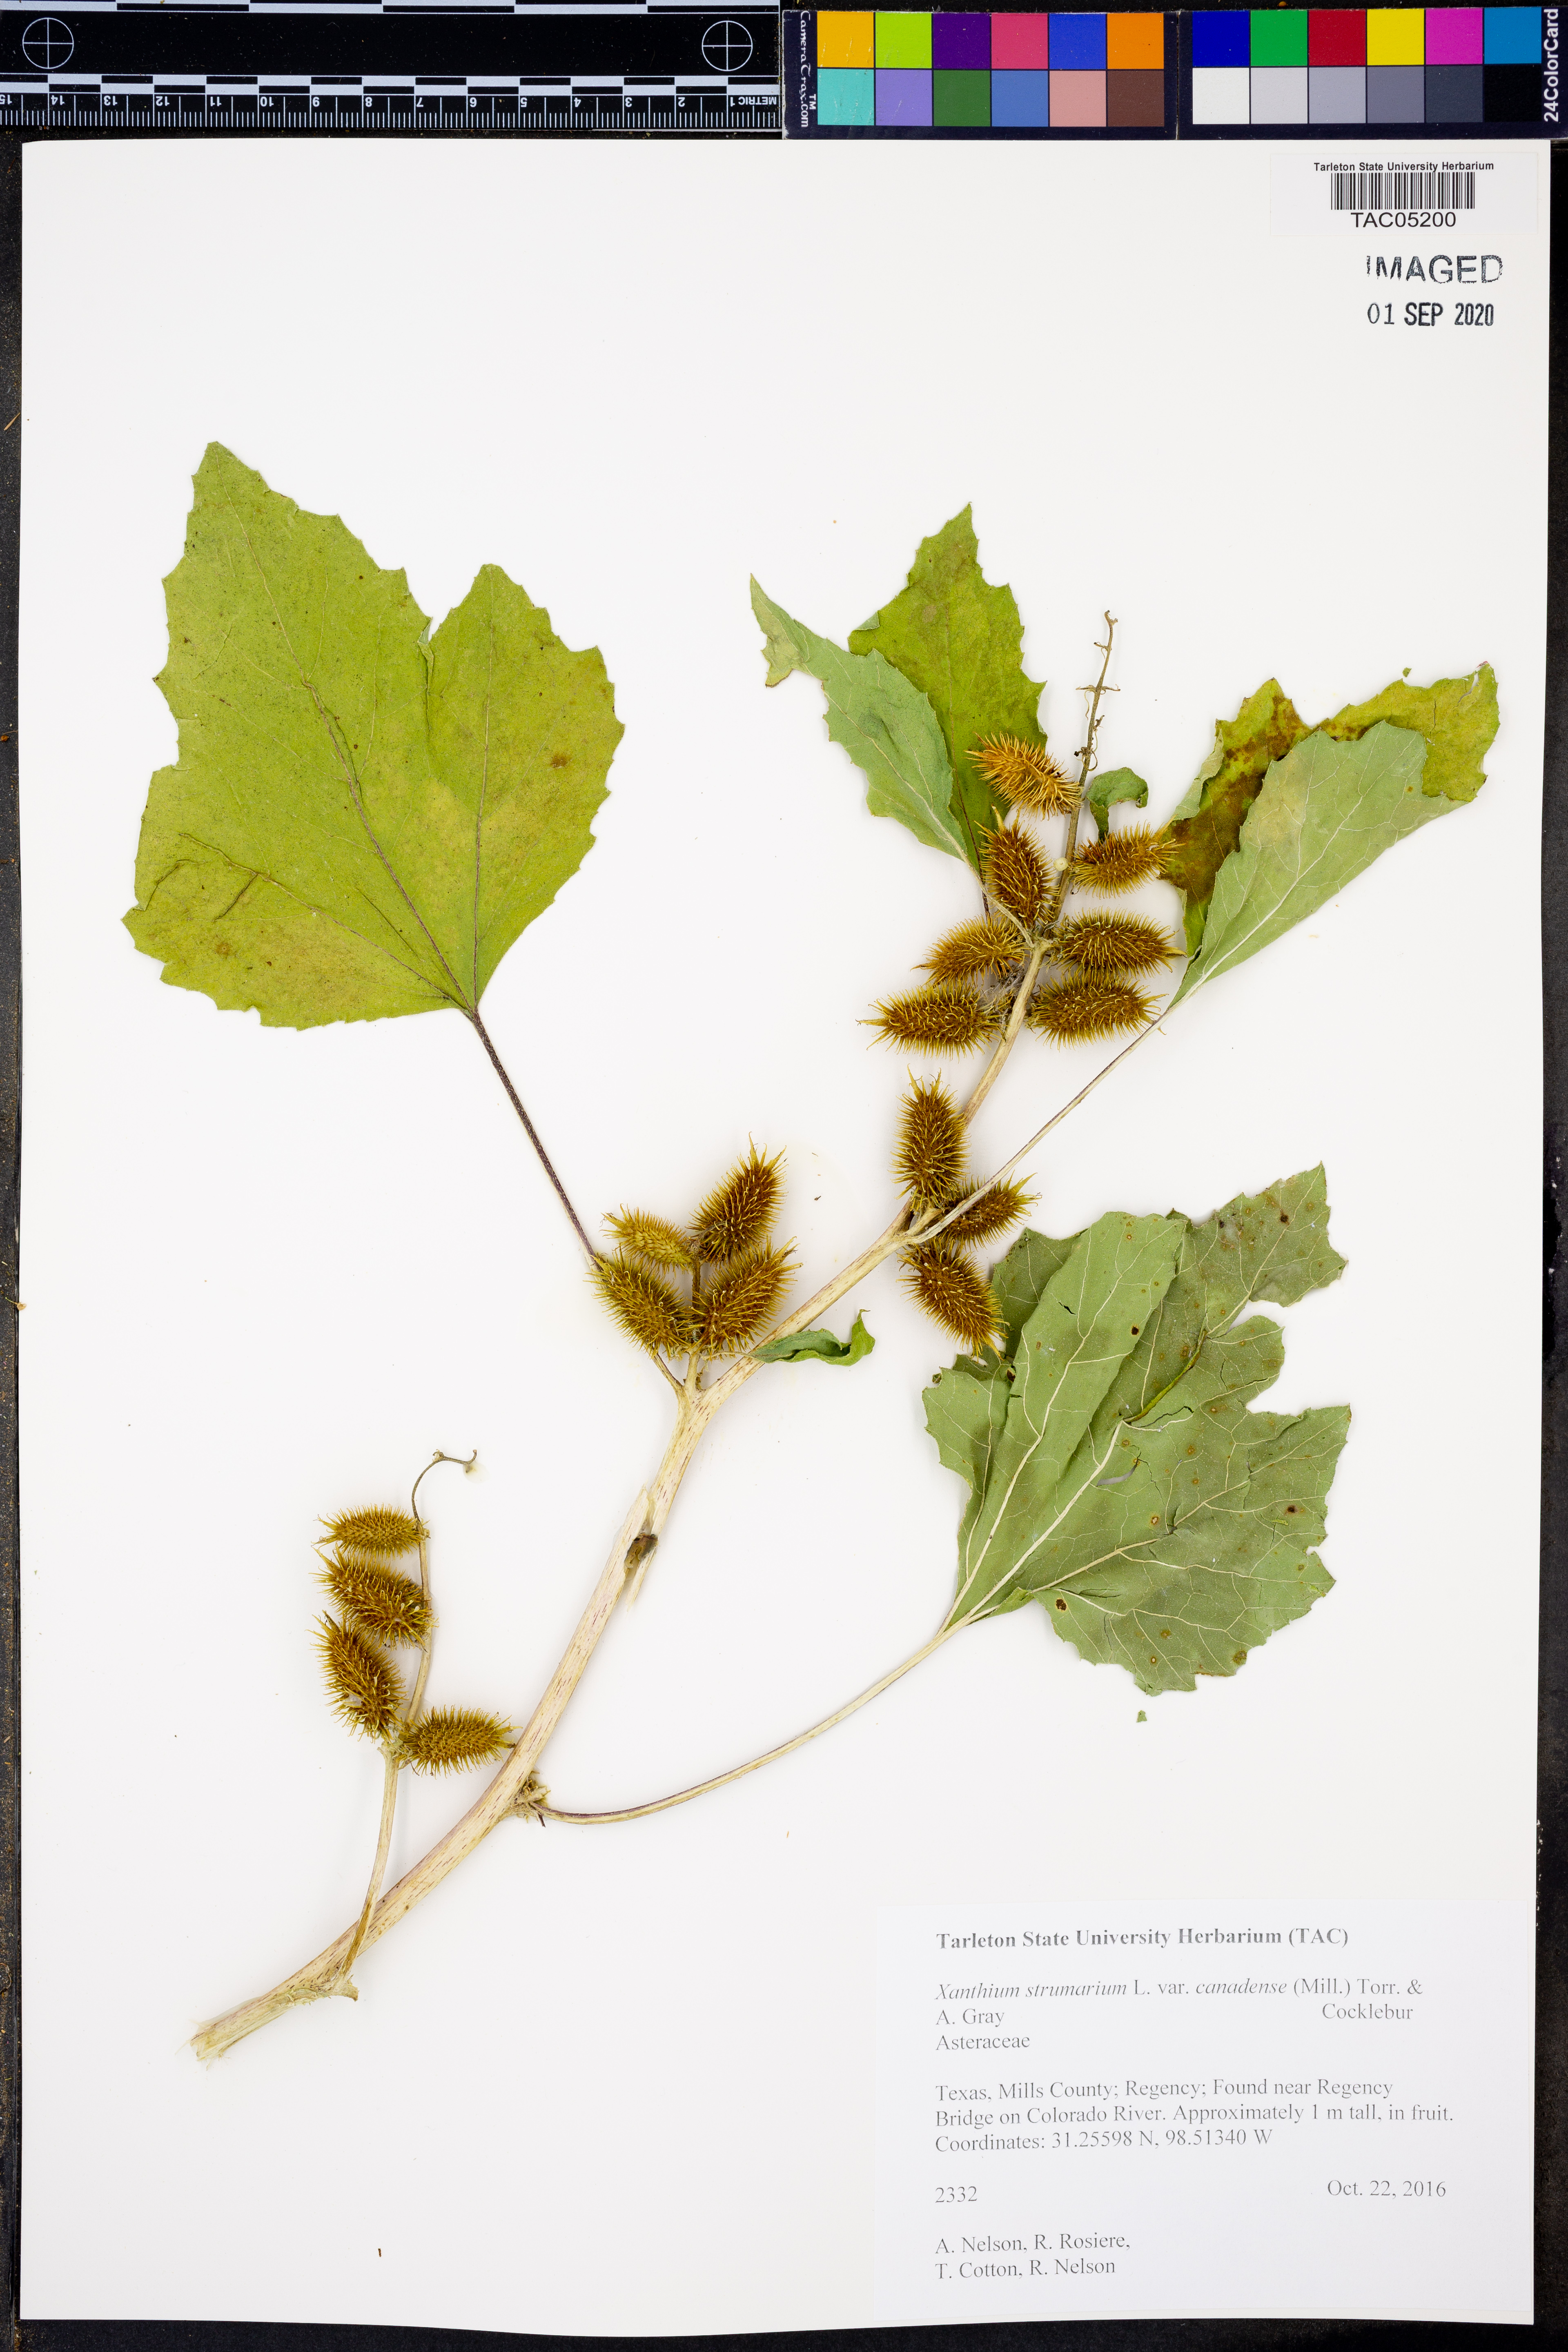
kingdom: Plantae
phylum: Tracheophyta
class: Magnoliopsida
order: Asterales
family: Asteraceae
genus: Xanthium
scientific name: Xanthium orientale
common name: Californian burr
